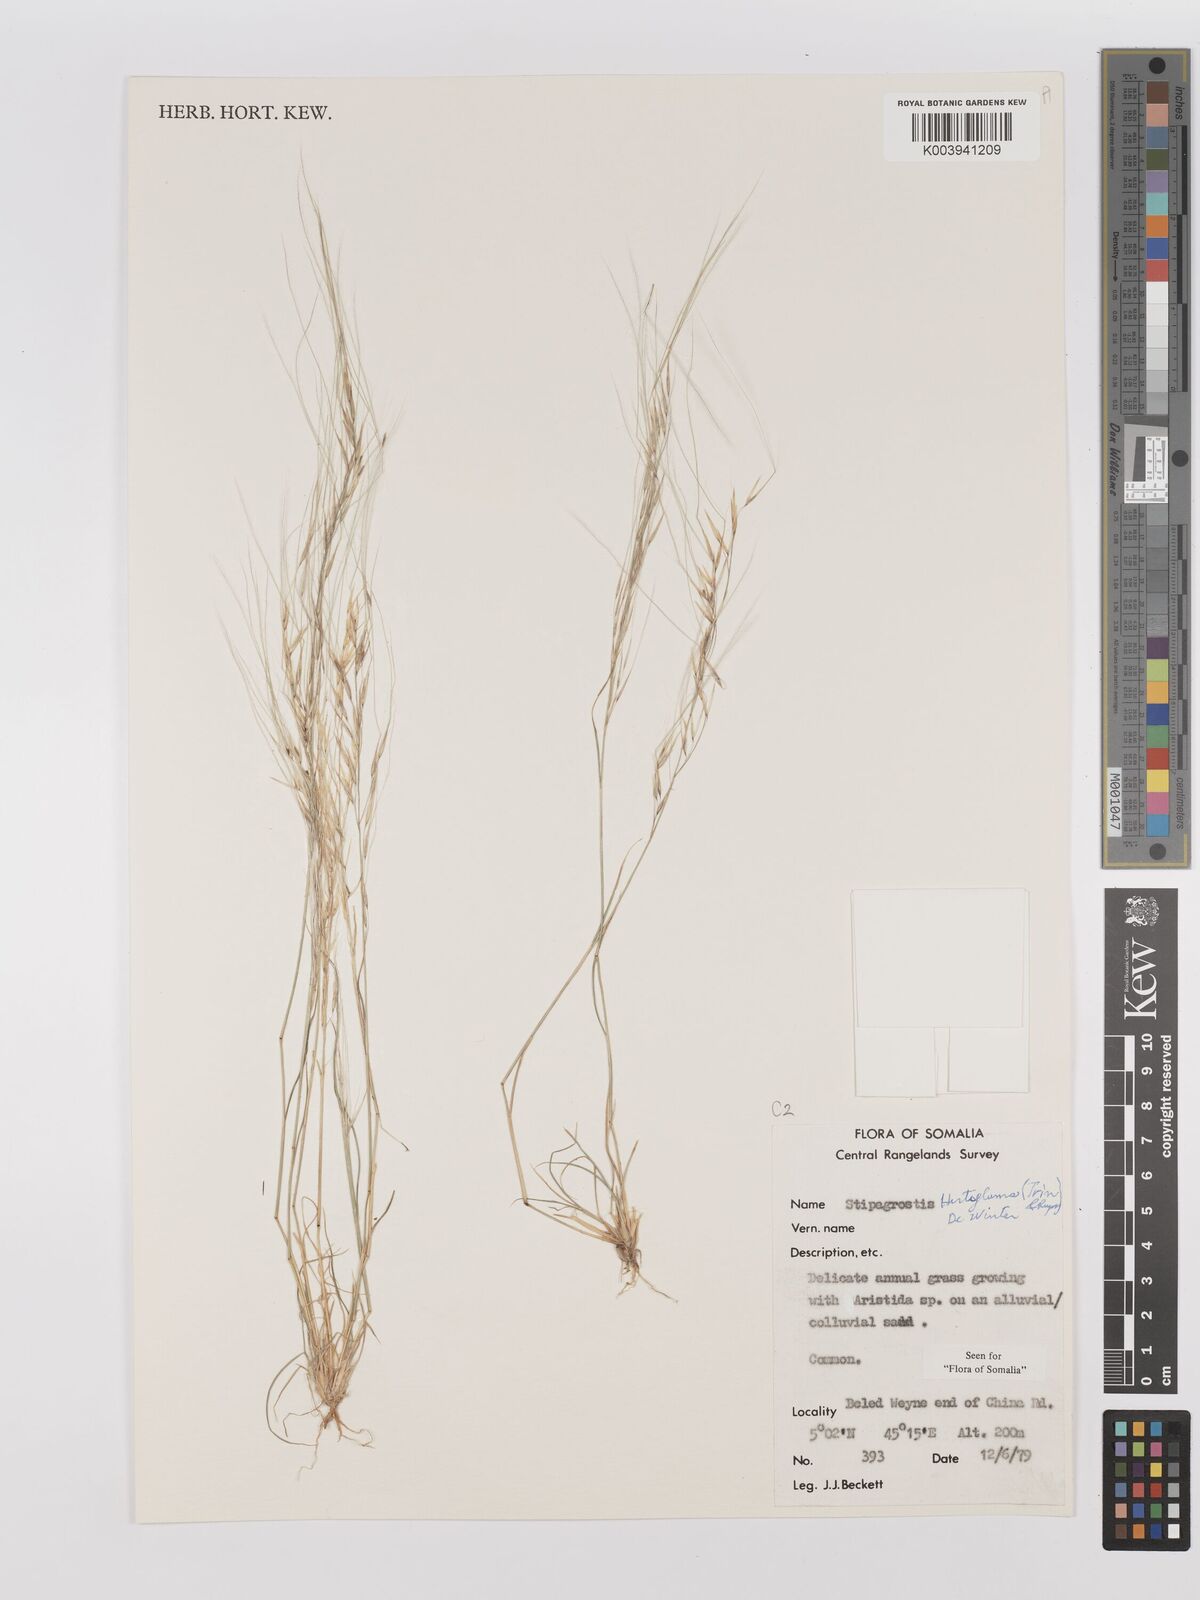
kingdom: Plantae
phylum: Tracheophyta
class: Liliopsida
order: Poales
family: Poaceae
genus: Stipagrostis
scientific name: Stipagrostis hirtigluma
